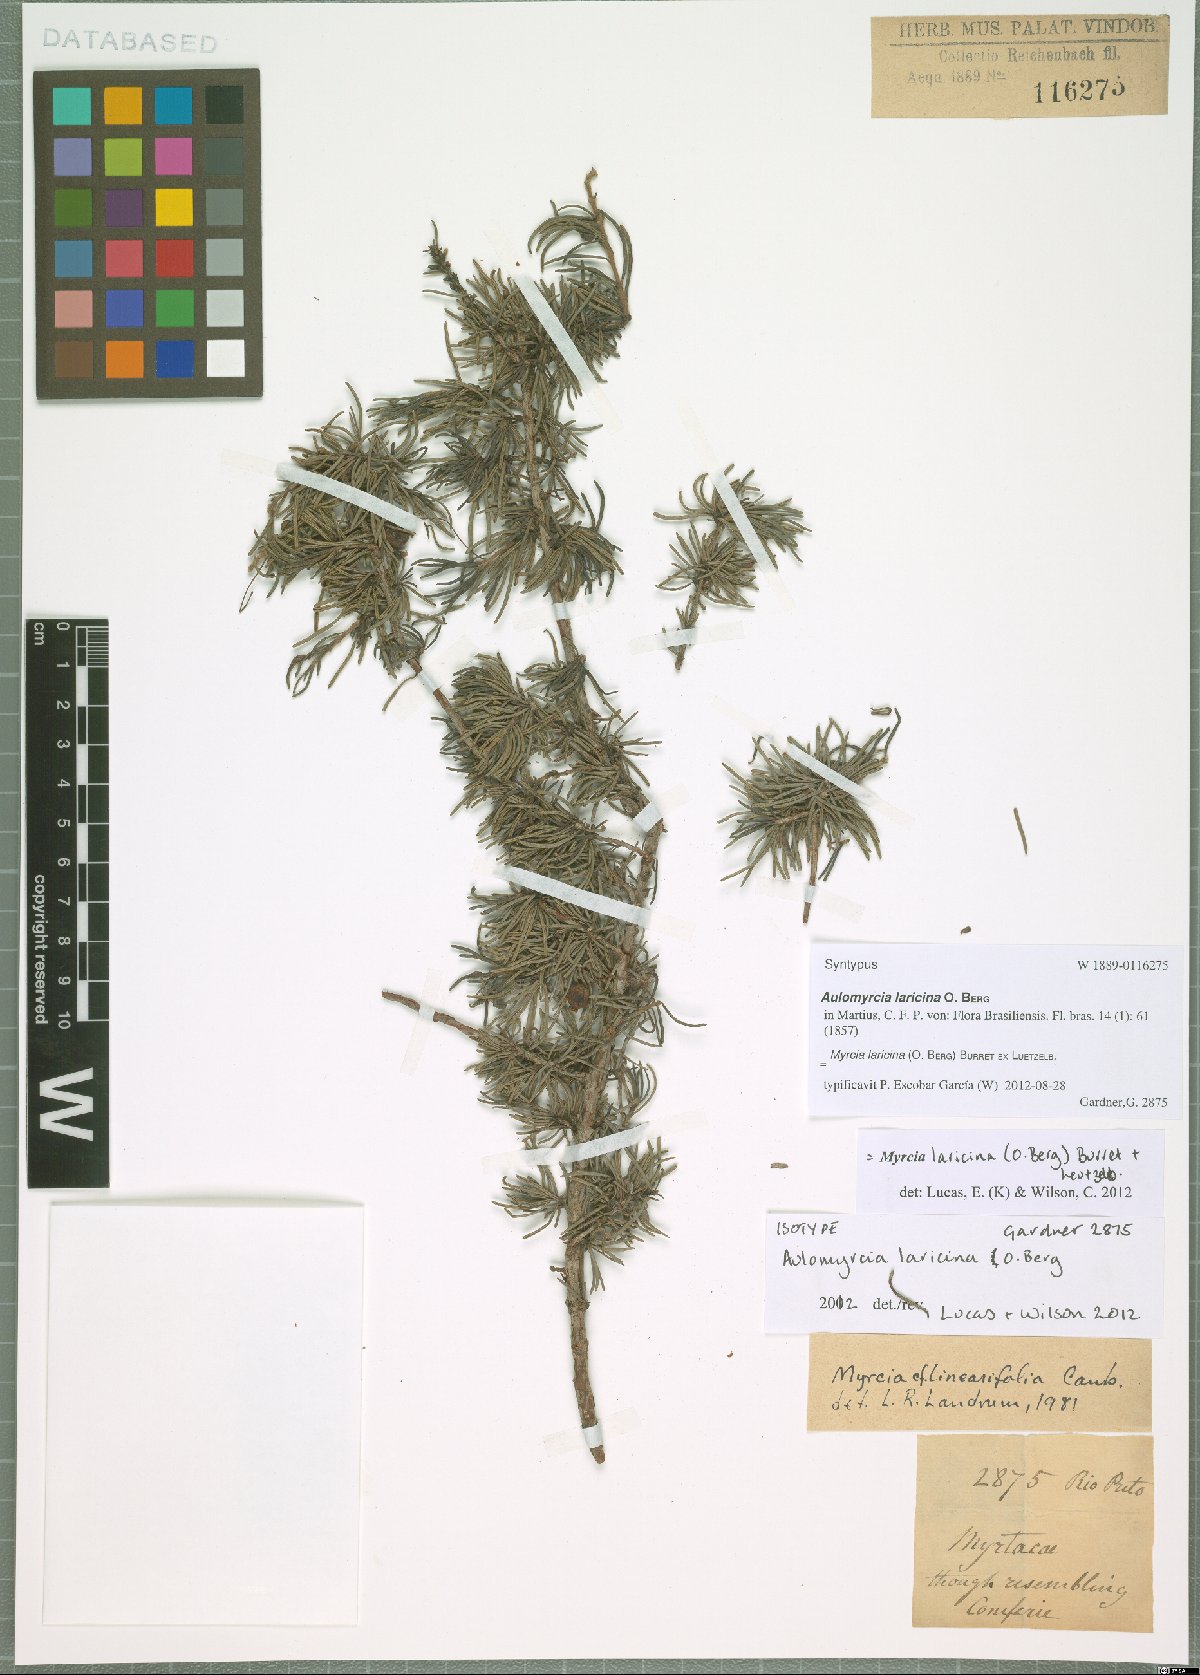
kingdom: Plantae
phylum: Tracheophyta
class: Magnoliopsida
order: Myrtales
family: Myrtaceae
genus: Myrcia
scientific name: Myrcia laricina
